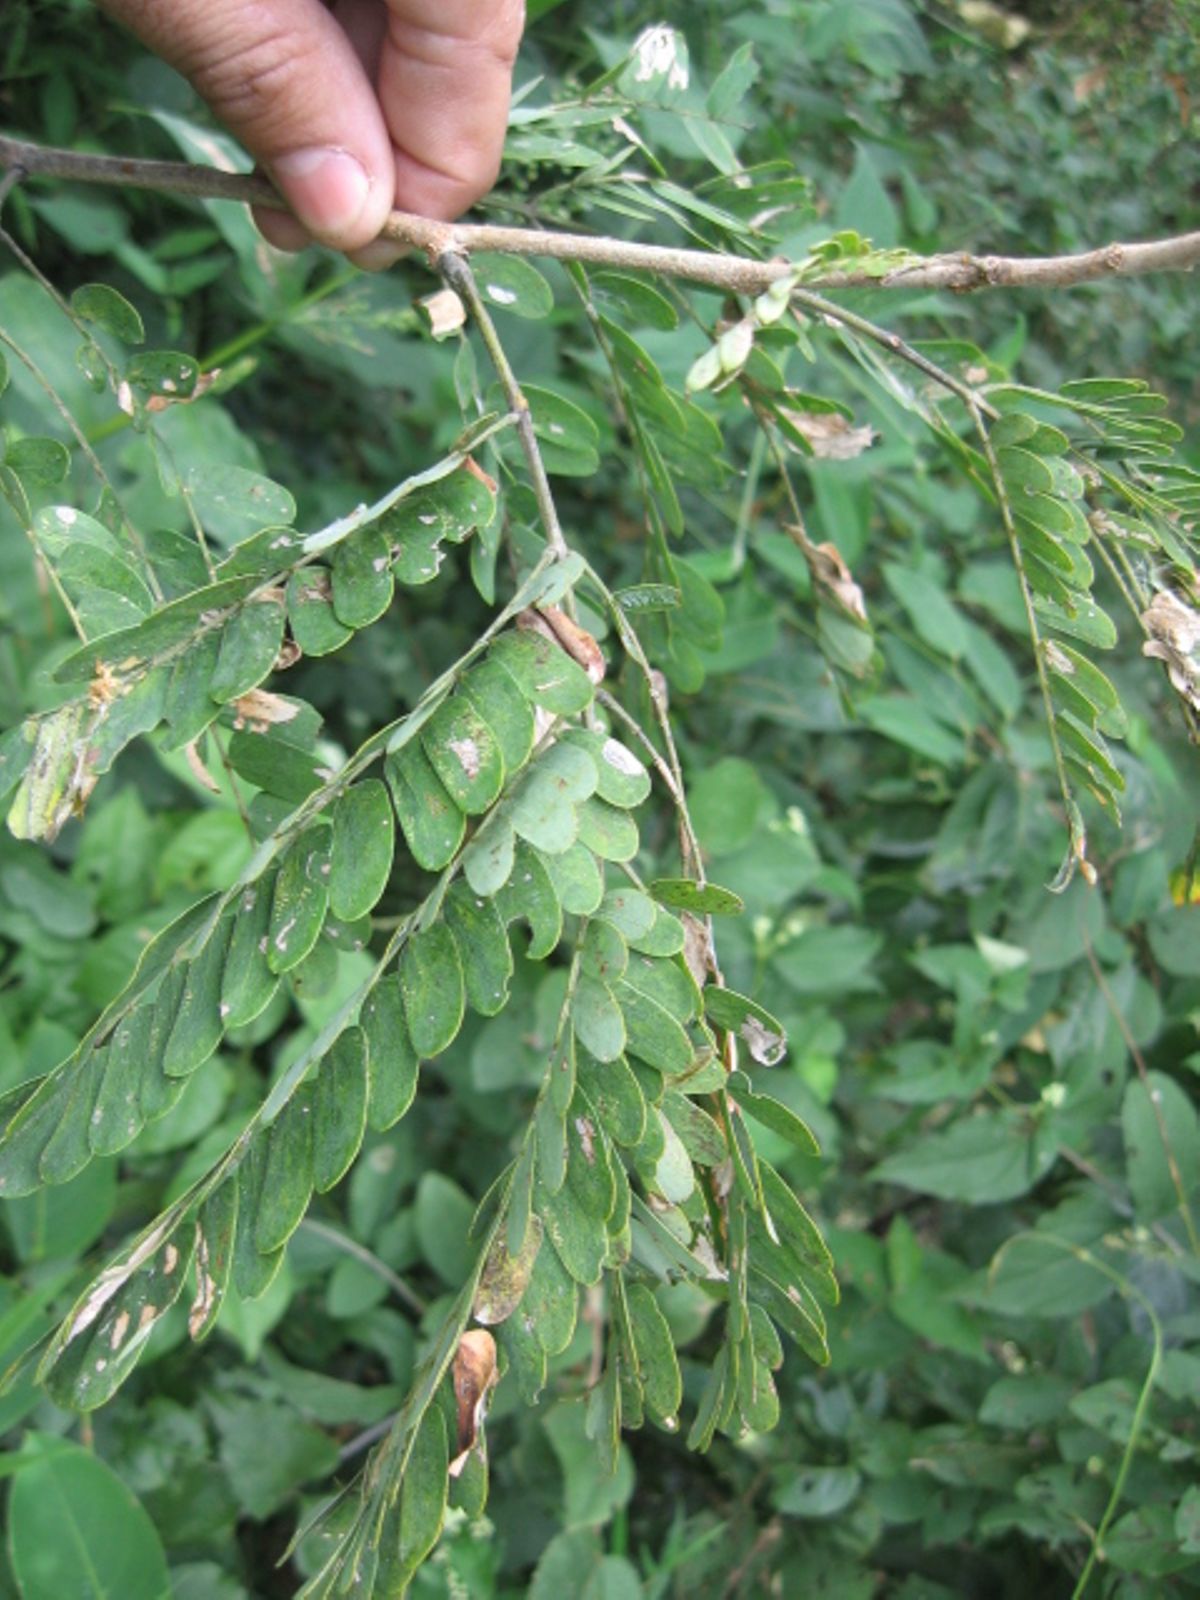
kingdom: Plantae
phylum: Tracheophyta
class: Magnoliopsida
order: Fabales
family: Fabaceae
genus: Leucaena
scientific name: Leucaena shannonii
